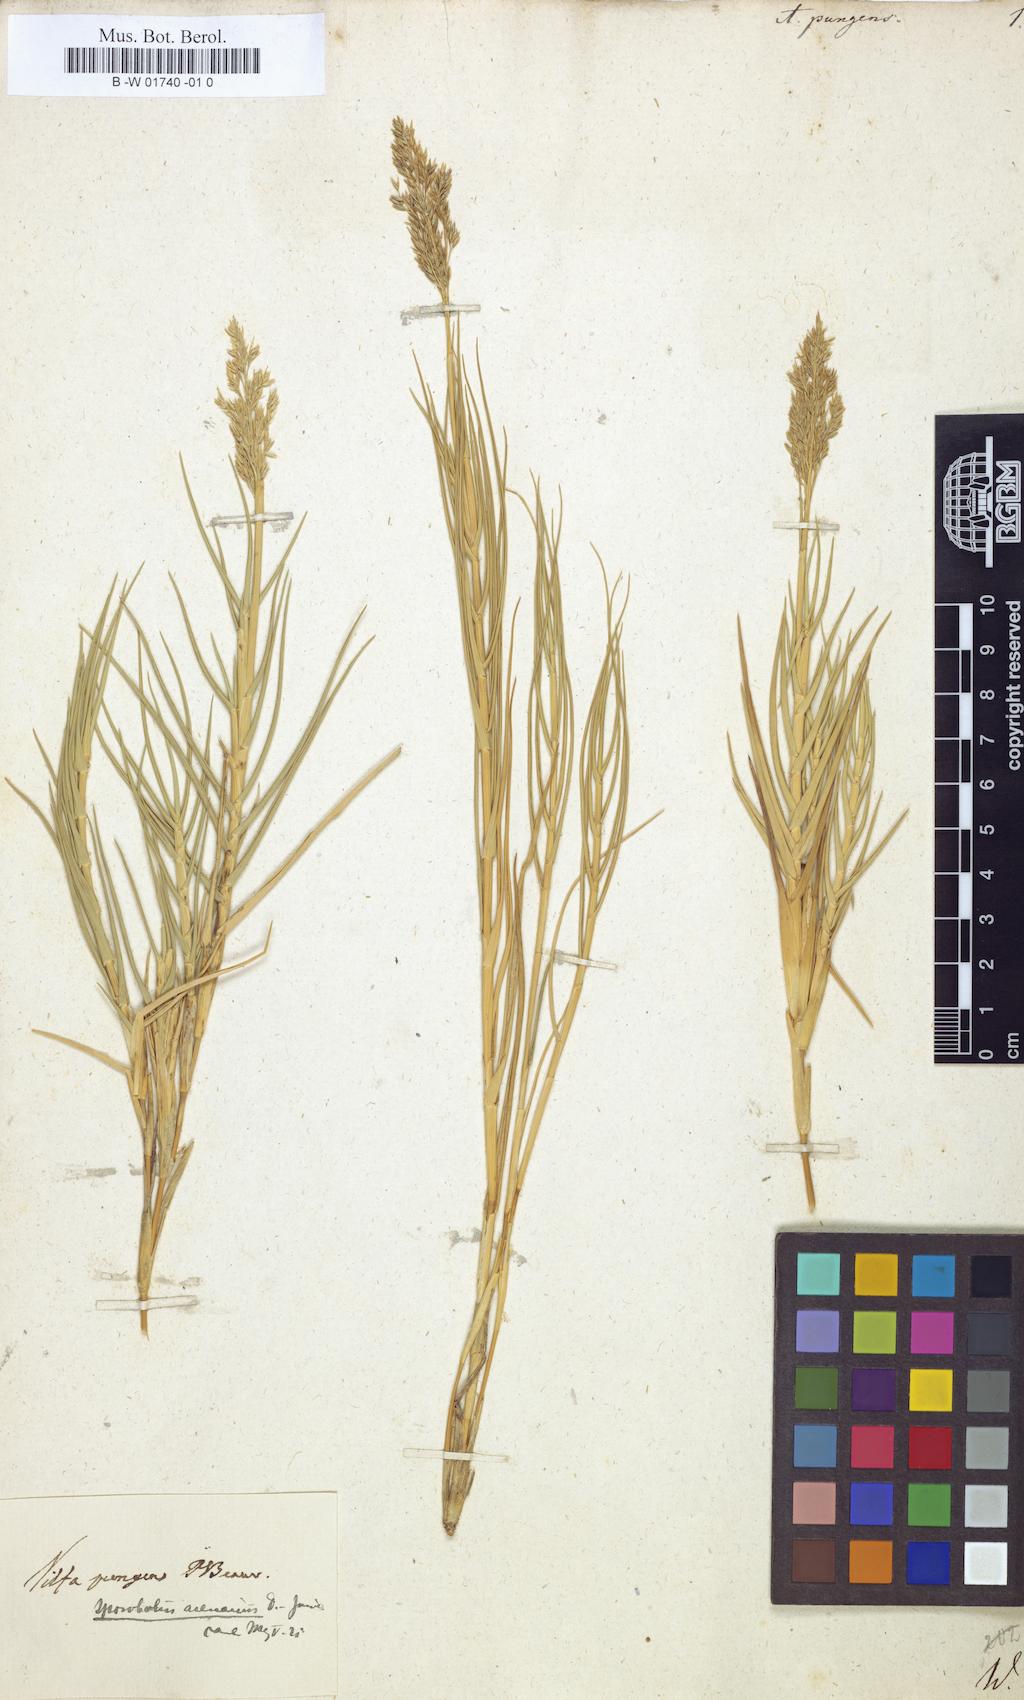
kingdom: Plantae
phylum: Tracheophyta
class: Liliopsida
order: Poales
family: Poaceae
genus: Sporobolus
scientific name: Sporobolus pungens
